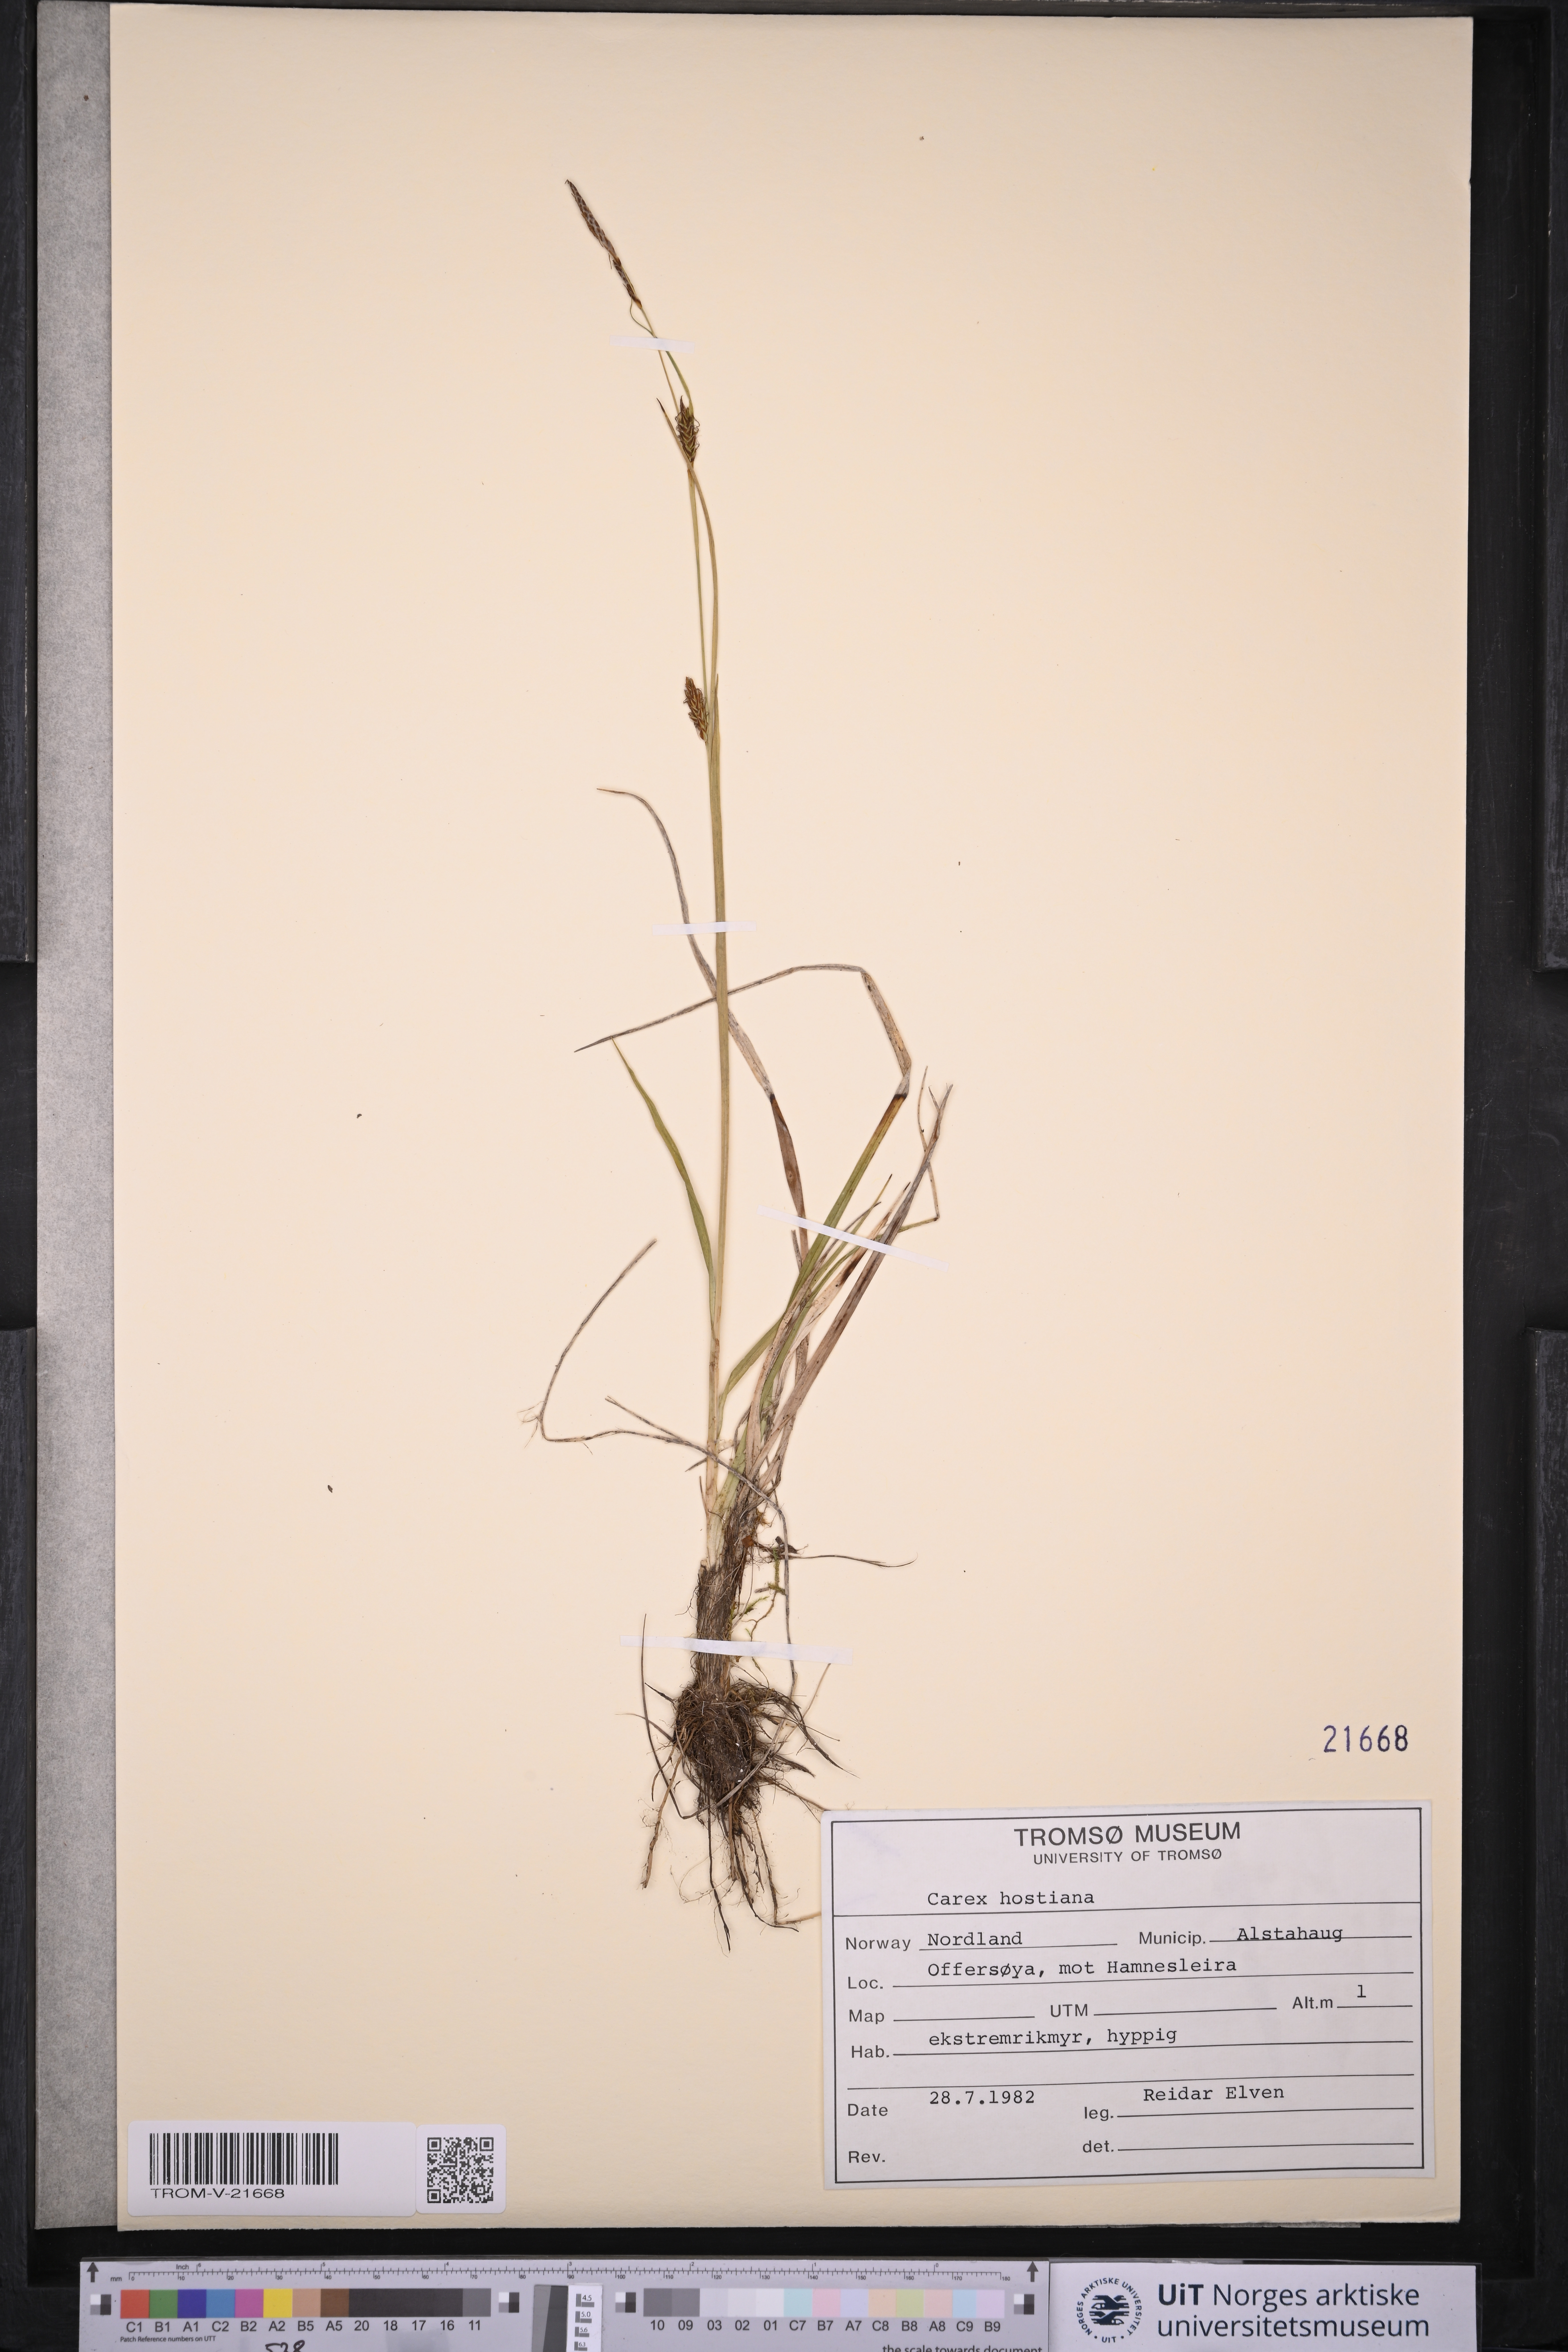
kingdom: Plantae
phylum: Tracheophyta
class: Liliopsida
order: Poales
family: Cyperaceae
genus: Carex
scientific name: Carex hostiana
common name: Tawny sedge
